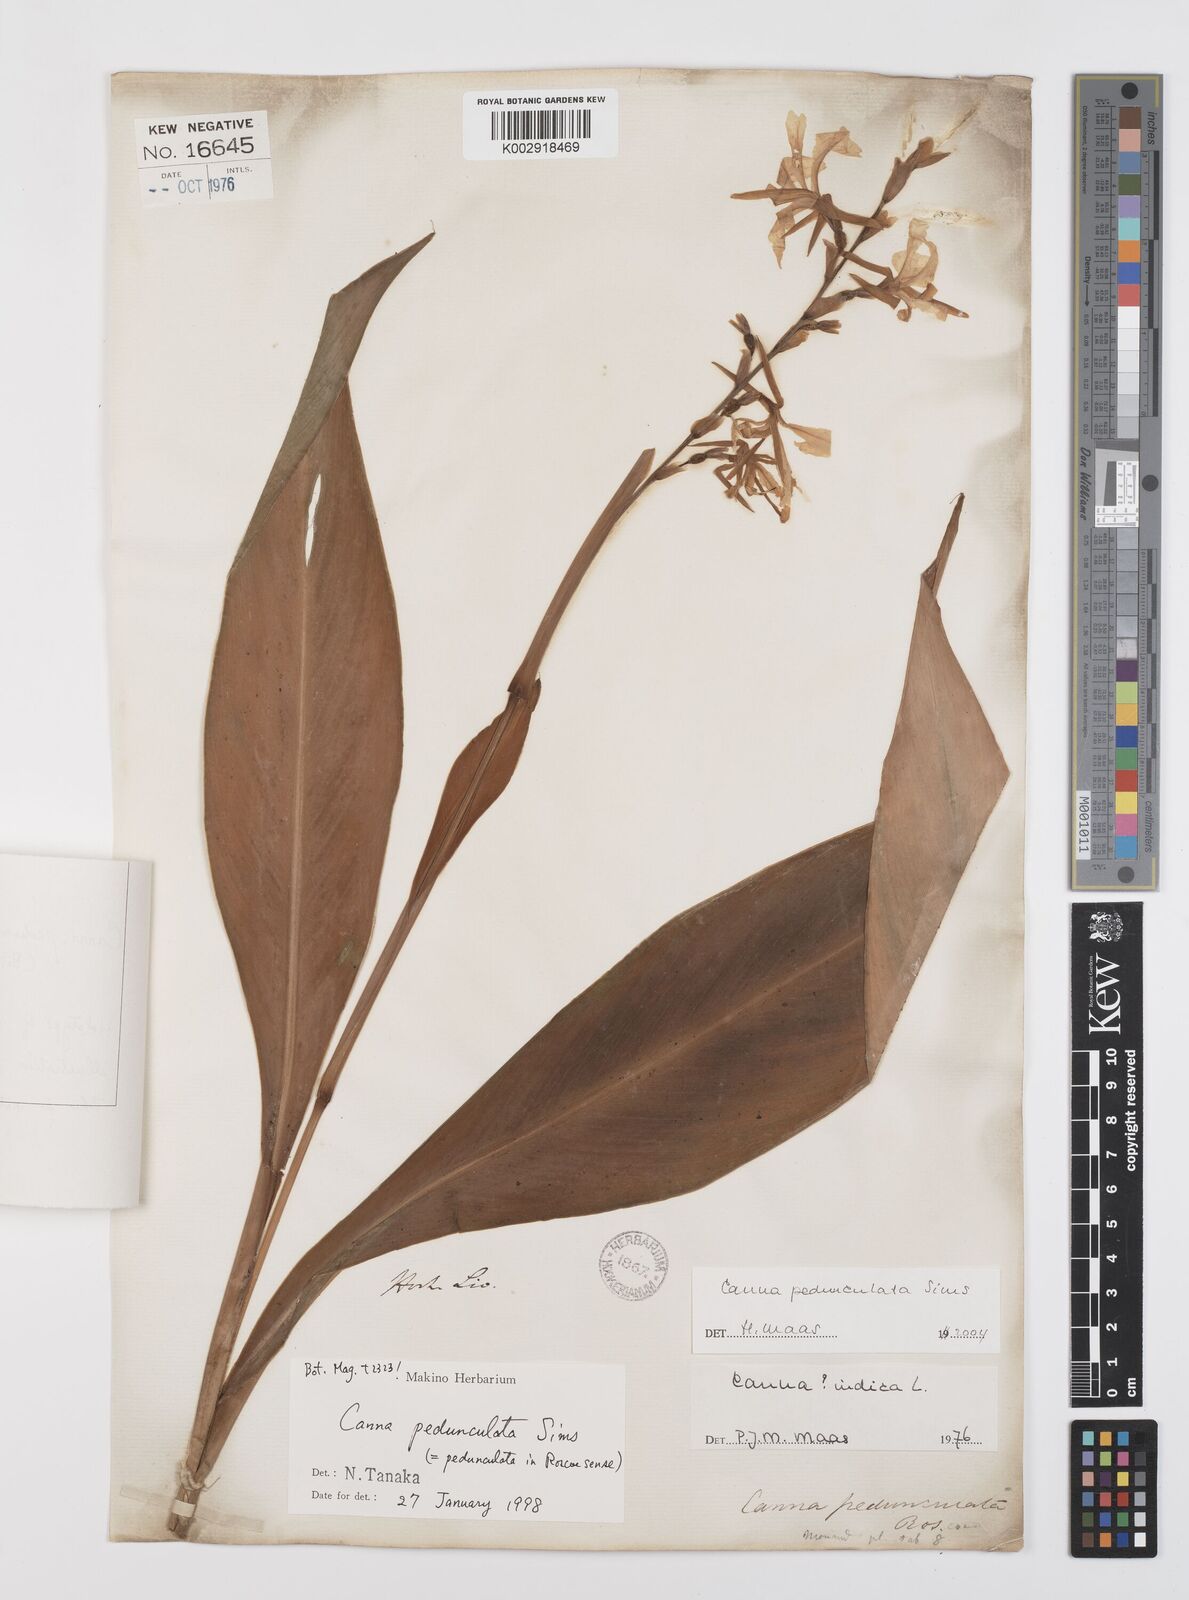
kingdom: Plantae
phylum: Tracheophyta
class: Liliopsida
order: Zingiberales
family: Cannaceae
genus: Canna
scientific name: Canna indica
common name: Indian shot
